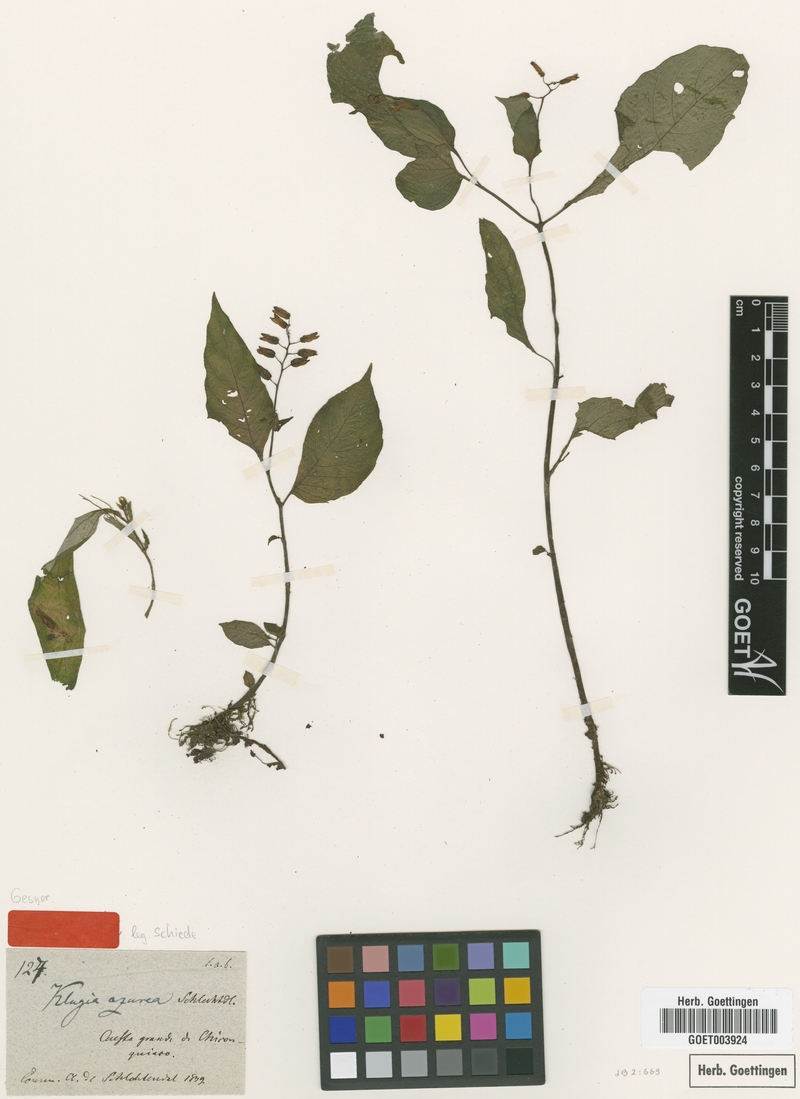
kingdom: Plantae
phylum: Tracheophyta
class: Magnoliopsida
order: Lamiales
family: Gesneriaceae
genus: Rhynchoglossum
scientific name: Rhynchoglossum azureum
